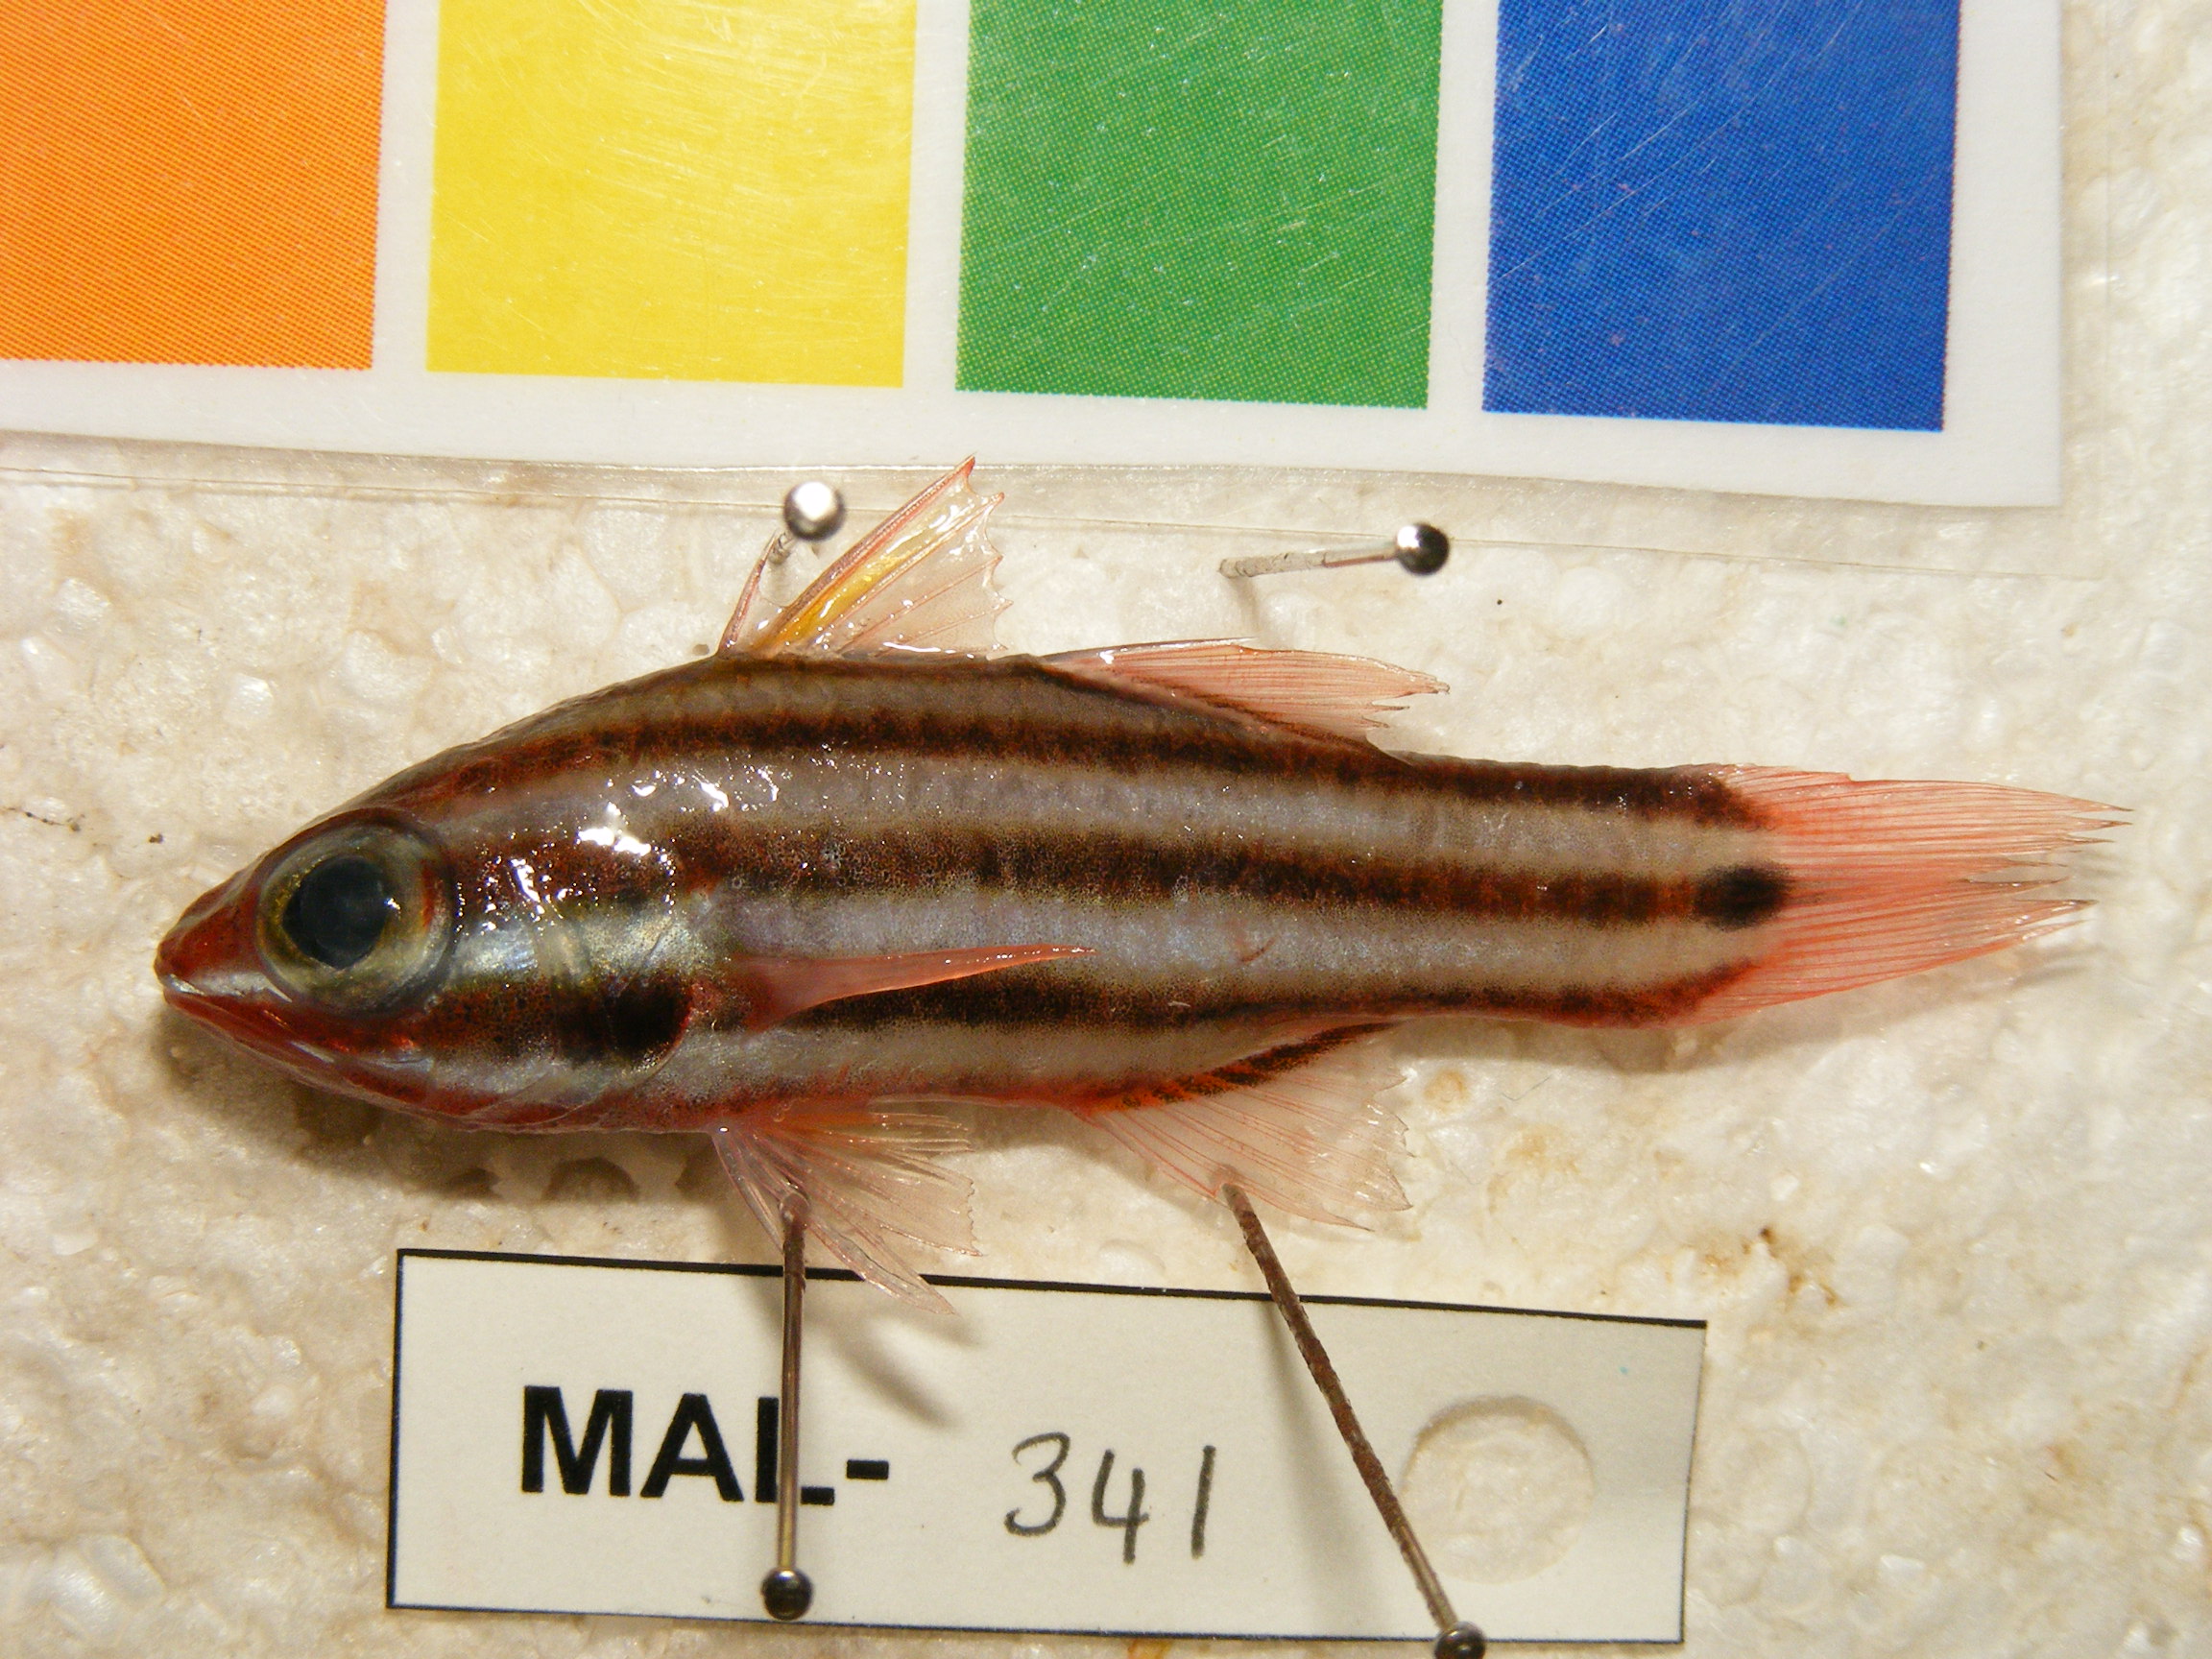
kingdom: Animalia
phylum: Chordata
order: Perciformes
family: Apogonidae
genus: Ostorhinchus
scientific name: Ostorhinchus cookii
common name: Cook's cardinalfish
